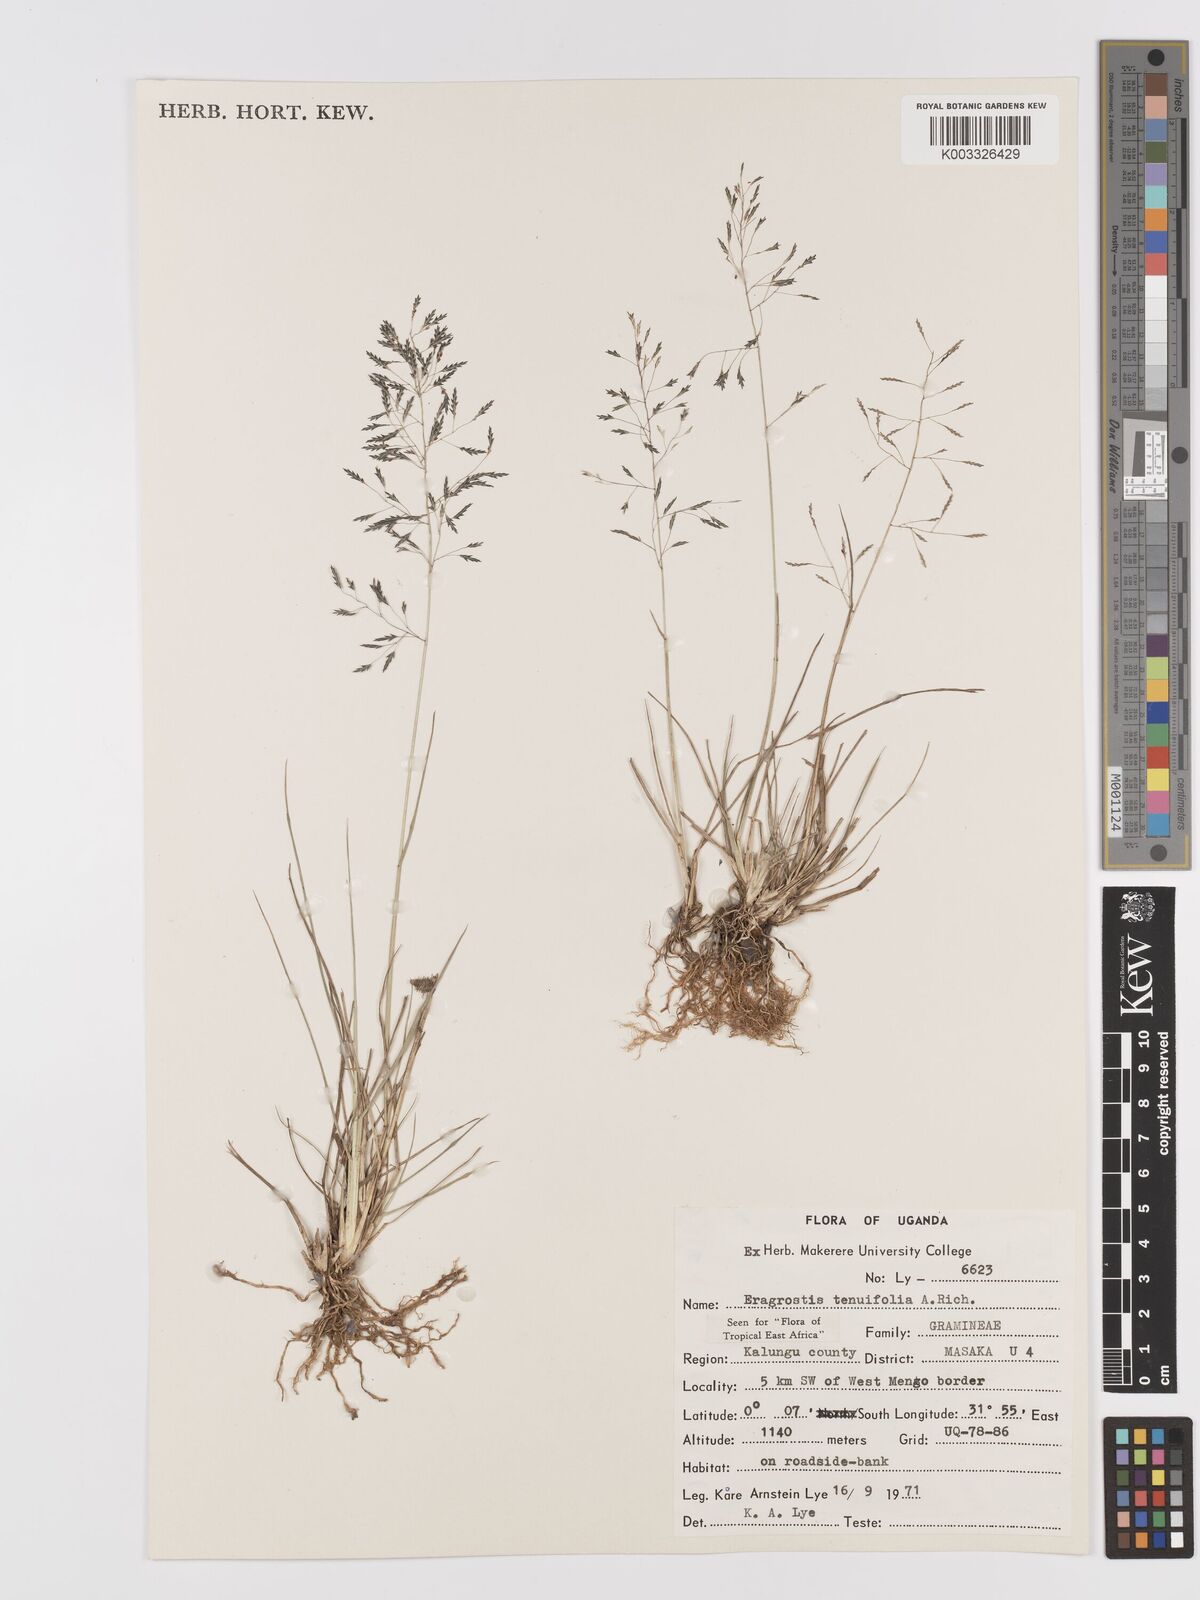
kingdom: Plantae
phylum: Tracheophyta
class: Liliopsida
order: Poales
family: Poaceae
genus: Eragrostis
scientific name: Eragrostis tenuifolia
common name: Elastic grass
